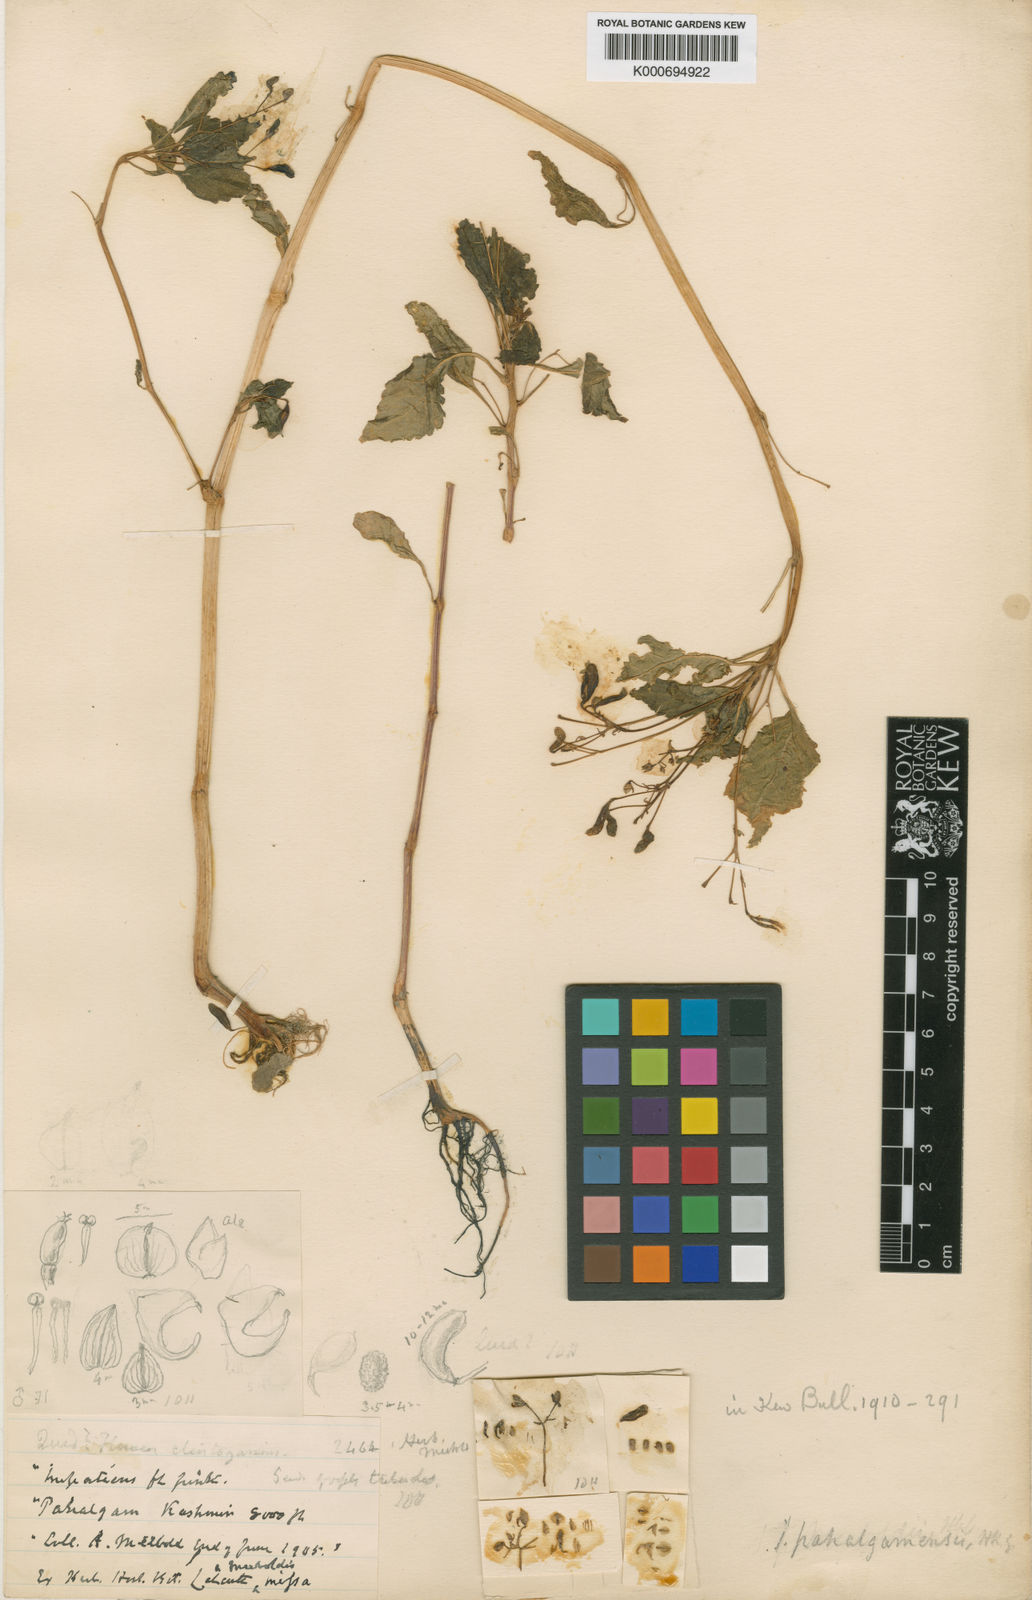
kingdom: Plantae
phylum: Tracheophyta
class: Magnoliopsida
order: Ericales
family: Balsaminaceae
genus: Impatiens
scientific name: Impatiens pahalgamensis
